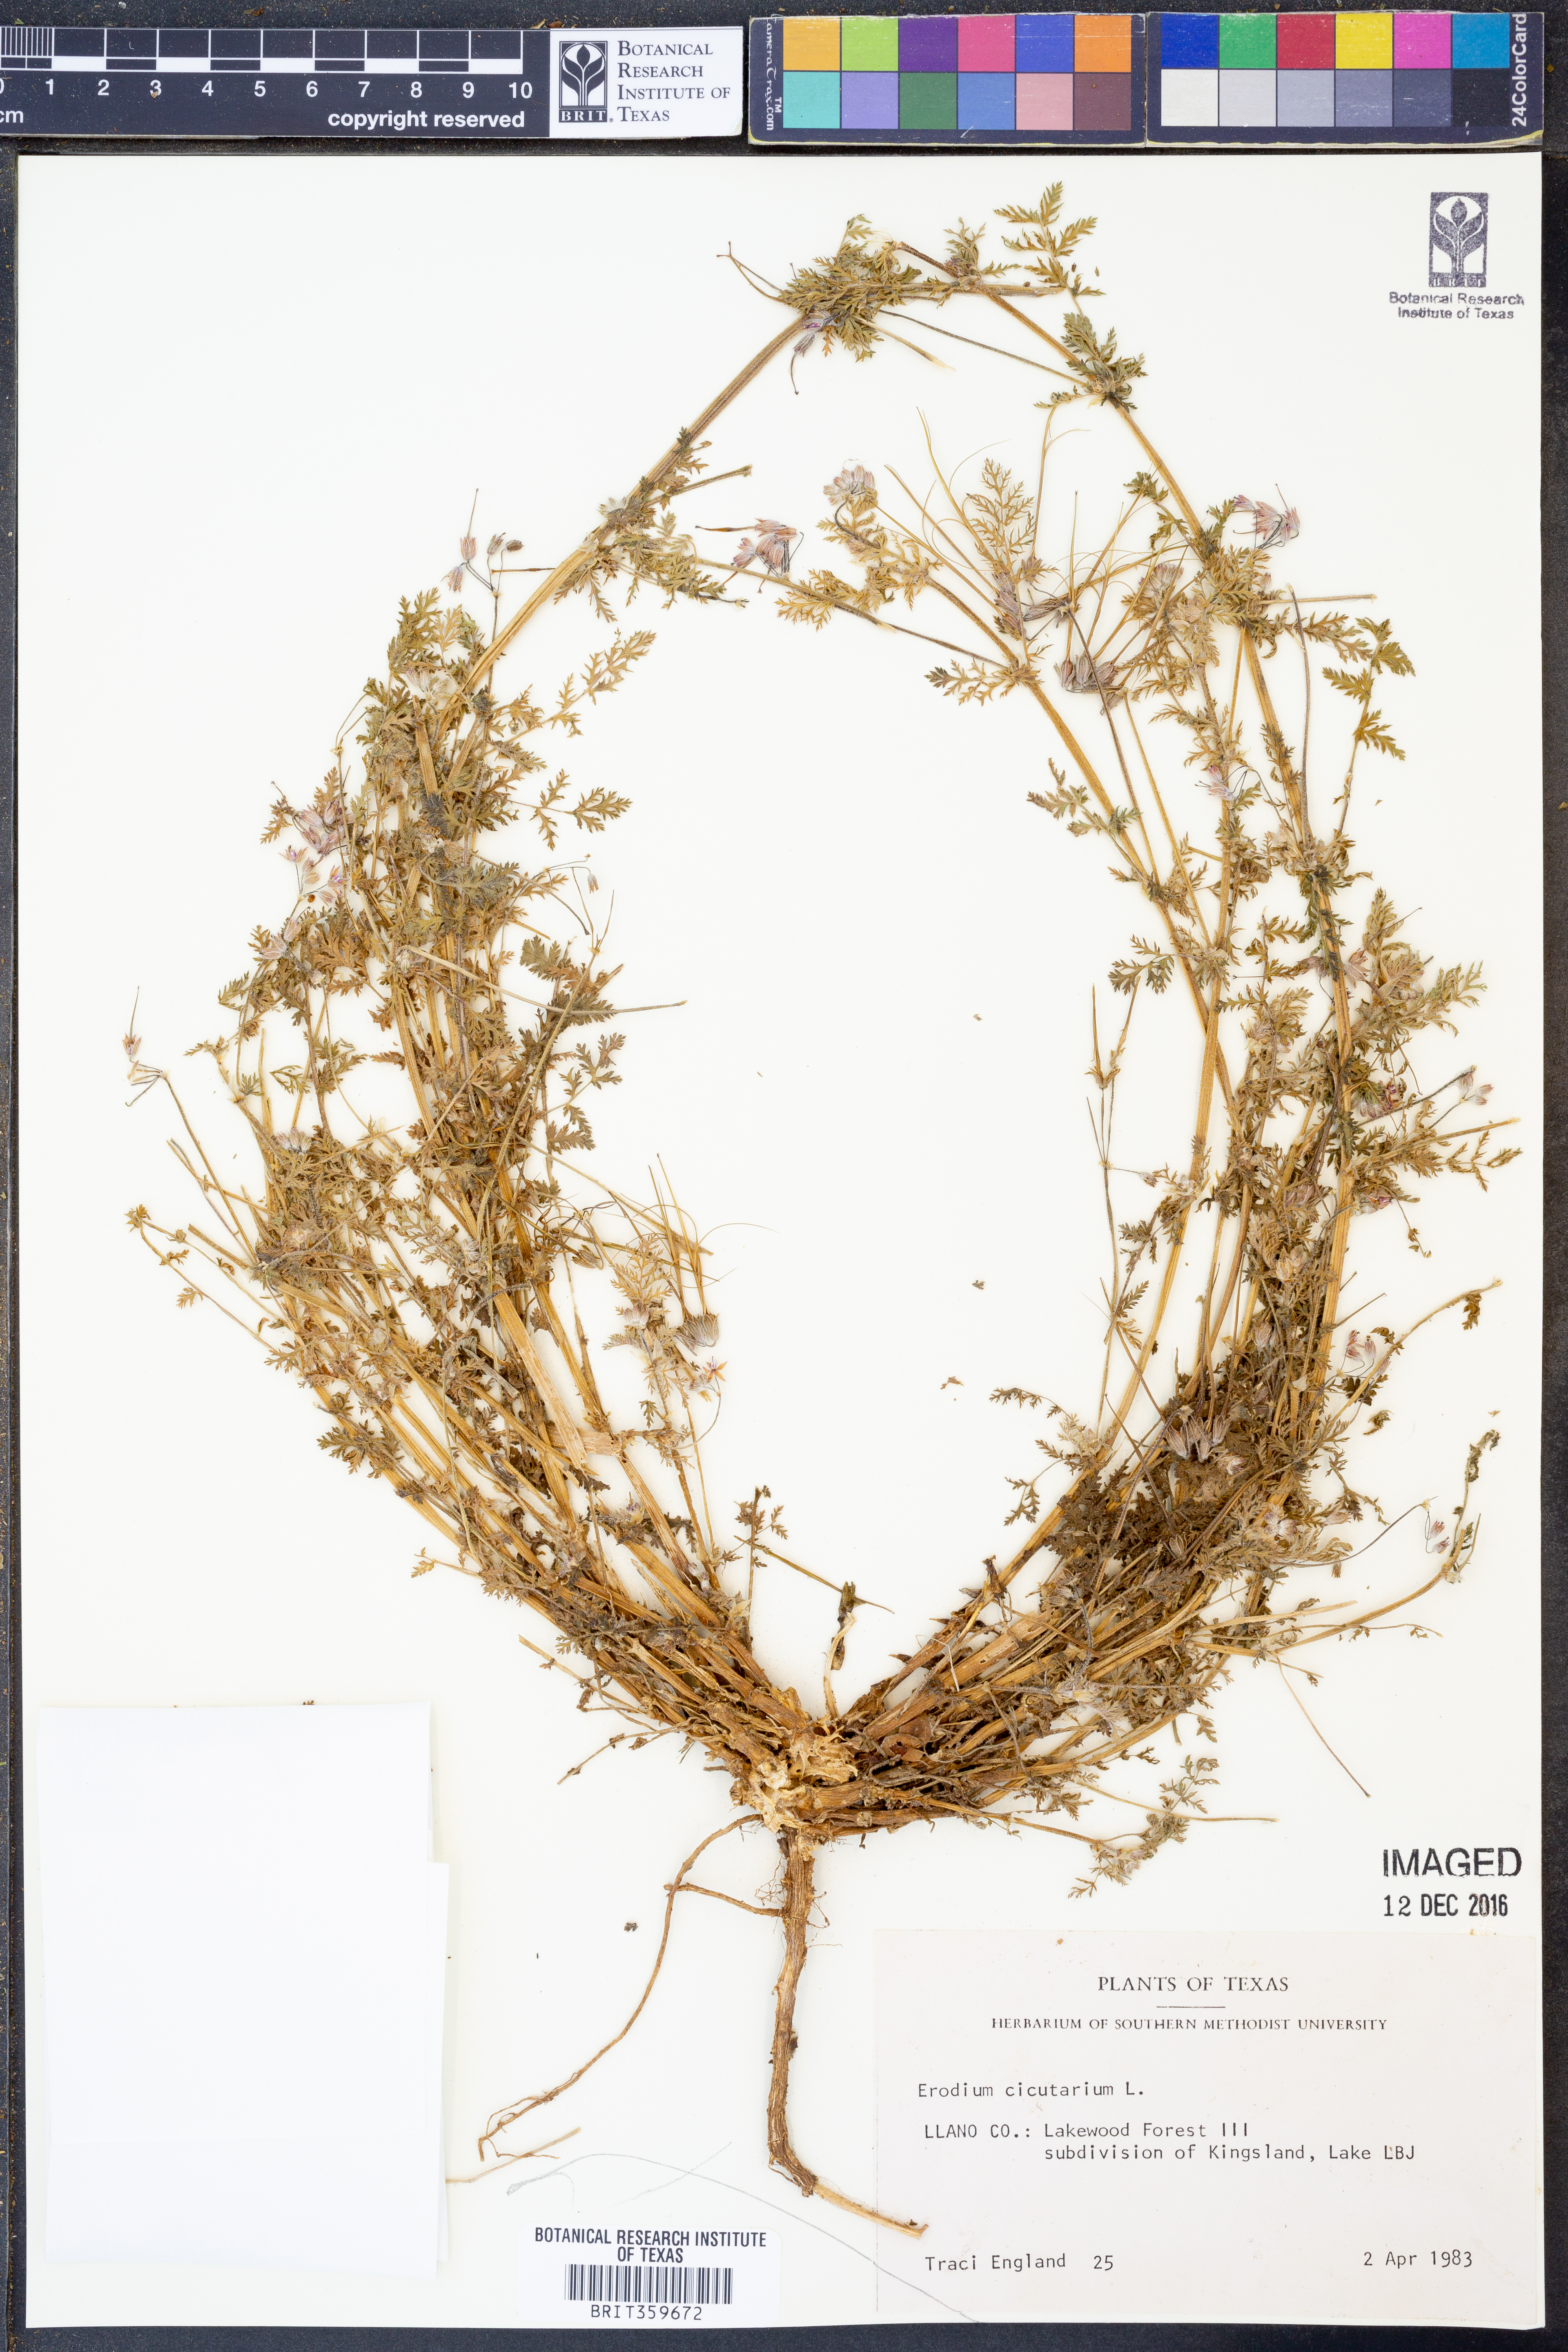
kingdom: Plantae
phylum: Tracheophyta
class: Magnoliopsida
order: Geraniales
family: Geraniaceae
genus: Erodium
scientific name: Erodium cicutarium
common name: Common stork's-bill
